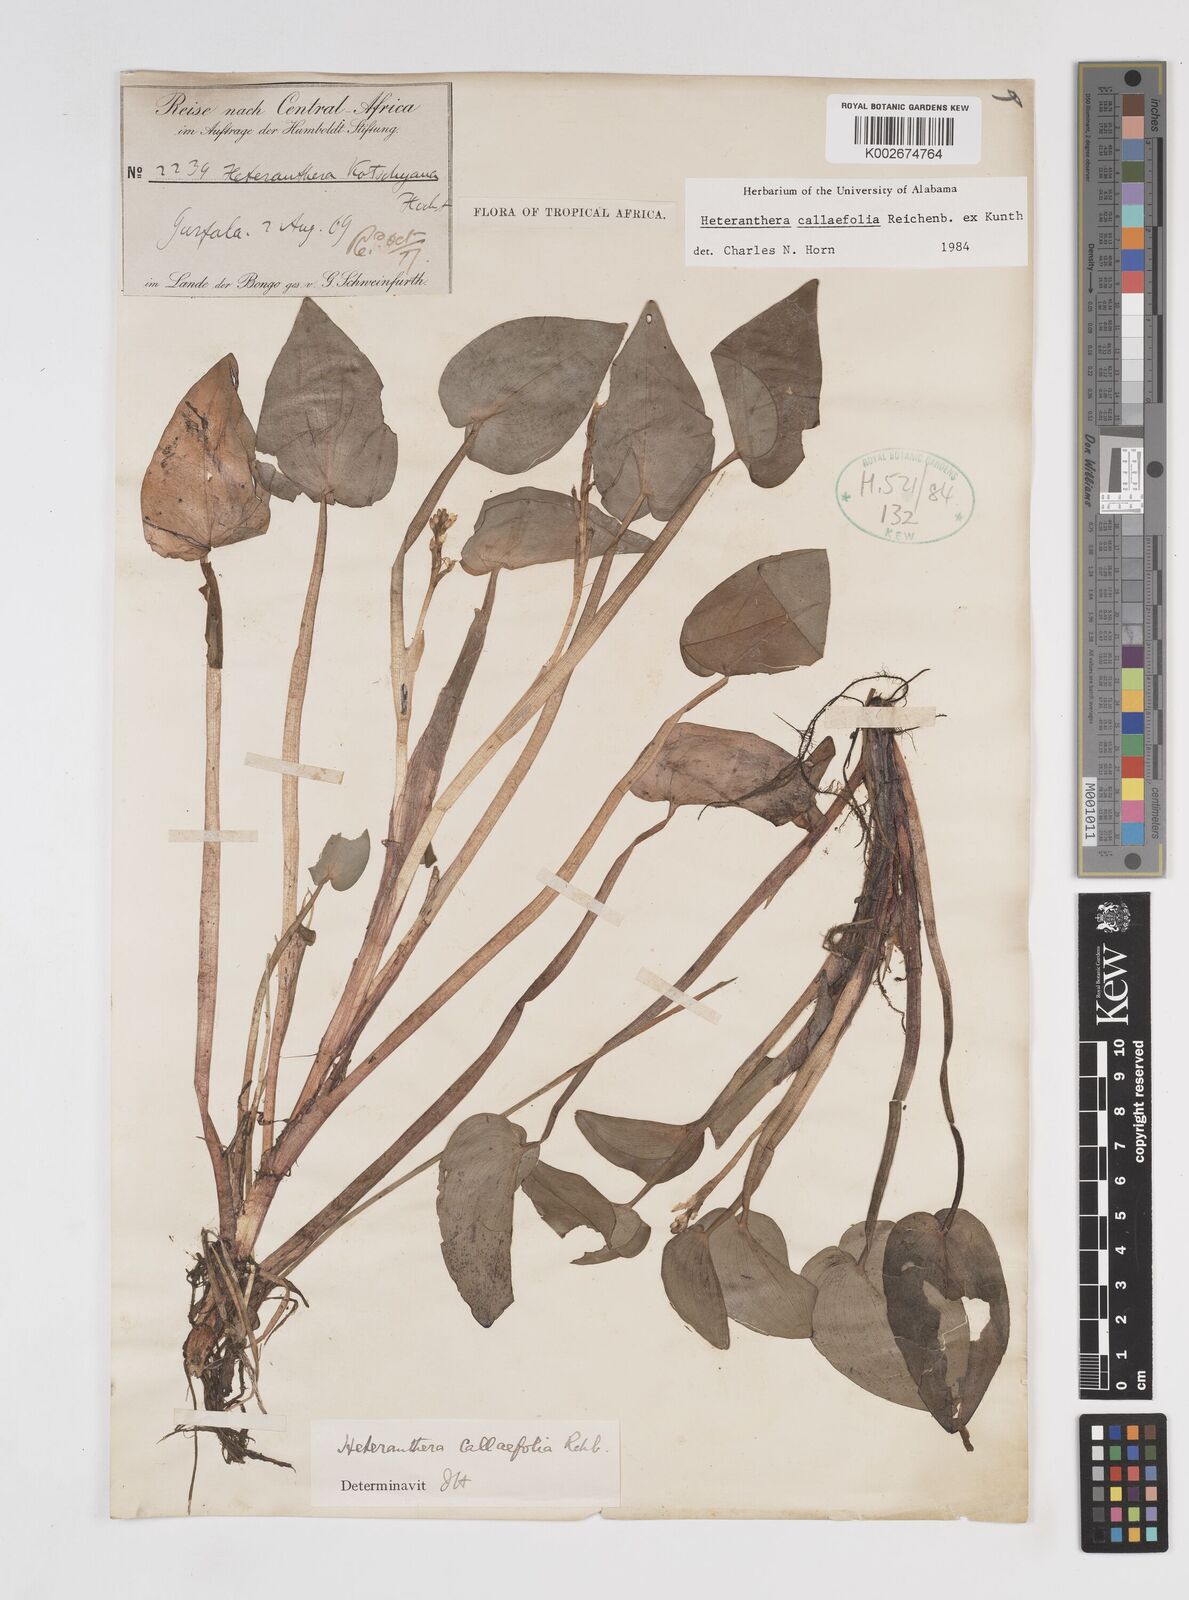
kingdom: Plantae
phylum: Tracheophyta
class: Liliopsida
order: Commelinales
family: Pontederiaceae
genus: Heteranthera
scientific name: Heteranthera callifolia
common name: Mud plantain
